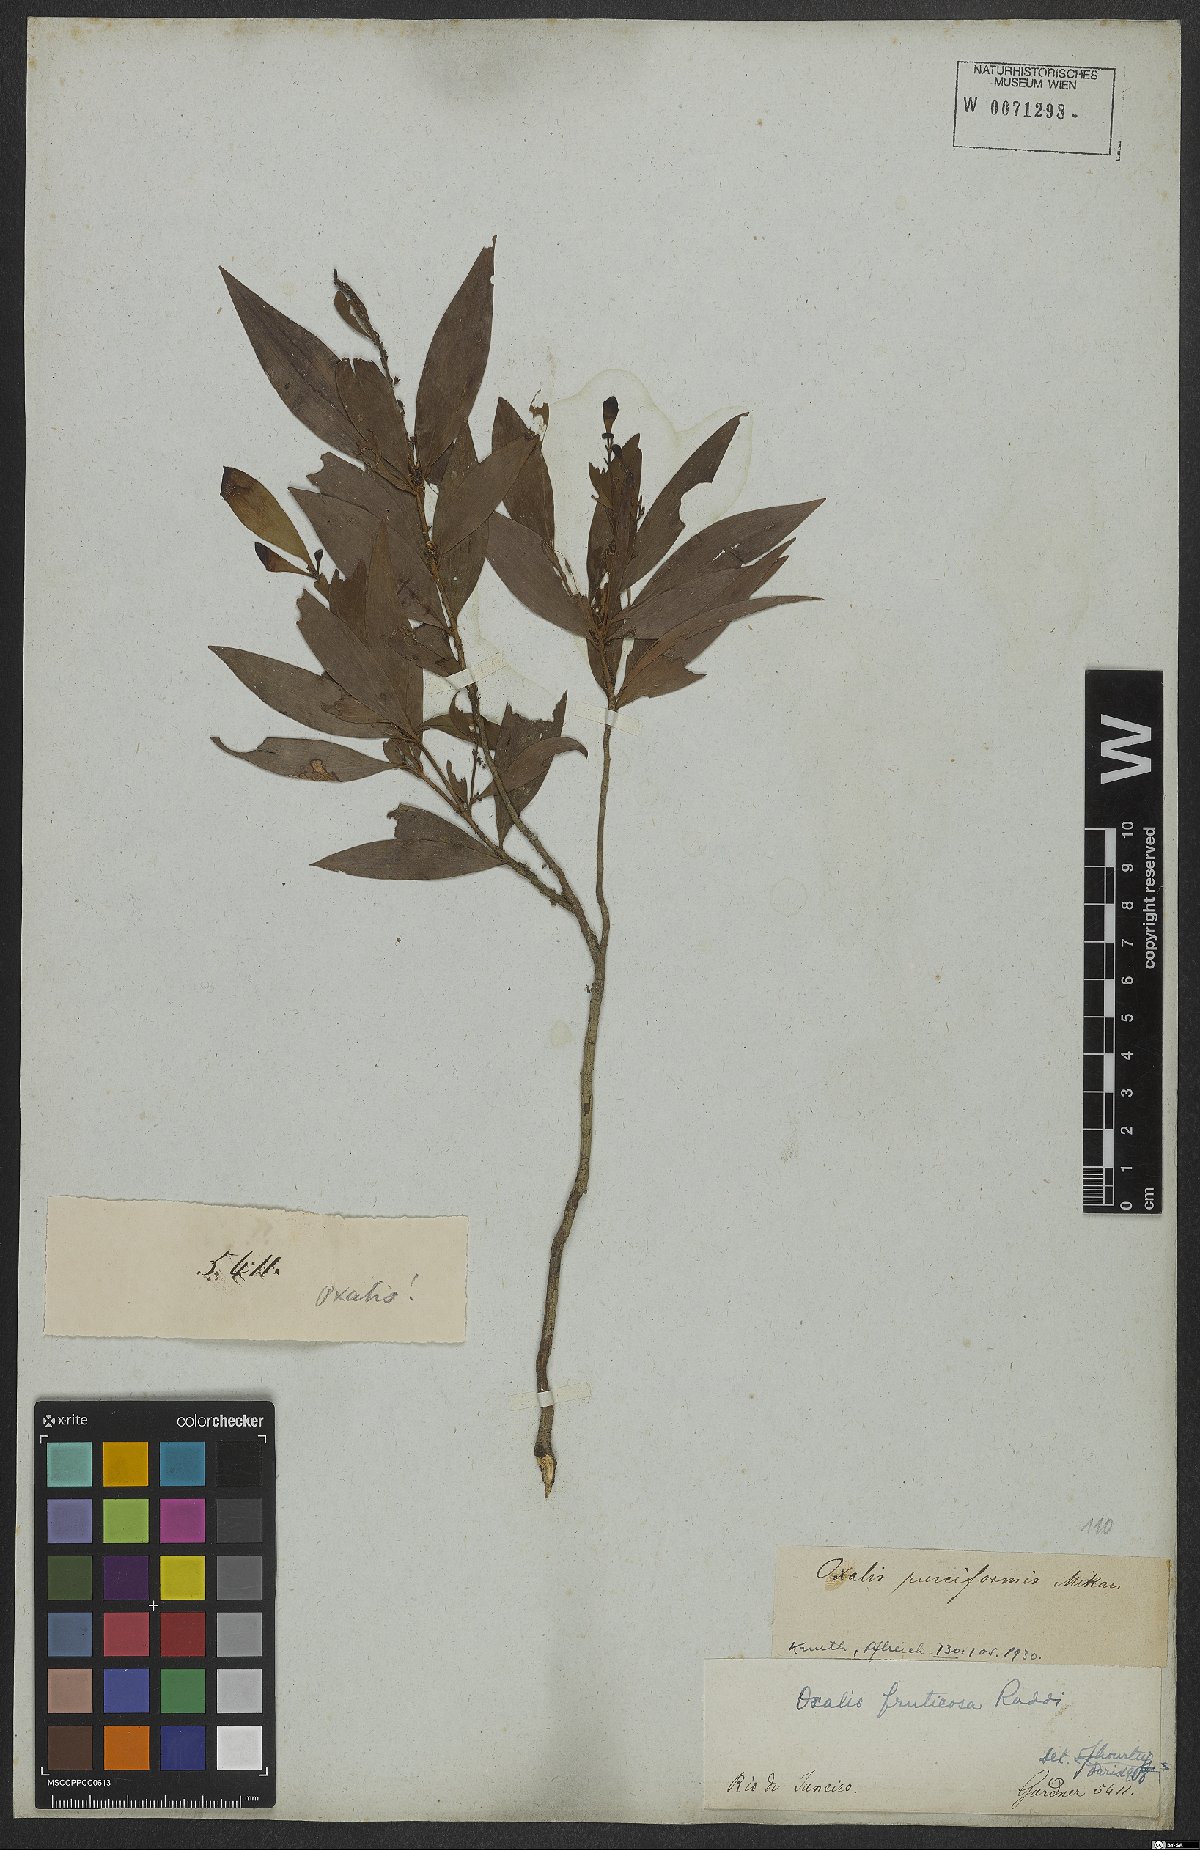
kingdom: Plantae
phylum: Tracheophyta
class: Magnoliopsida
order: Oxalidales
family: Oxalidaceae
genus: Oxalis
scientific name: Oxalis fruticosa
